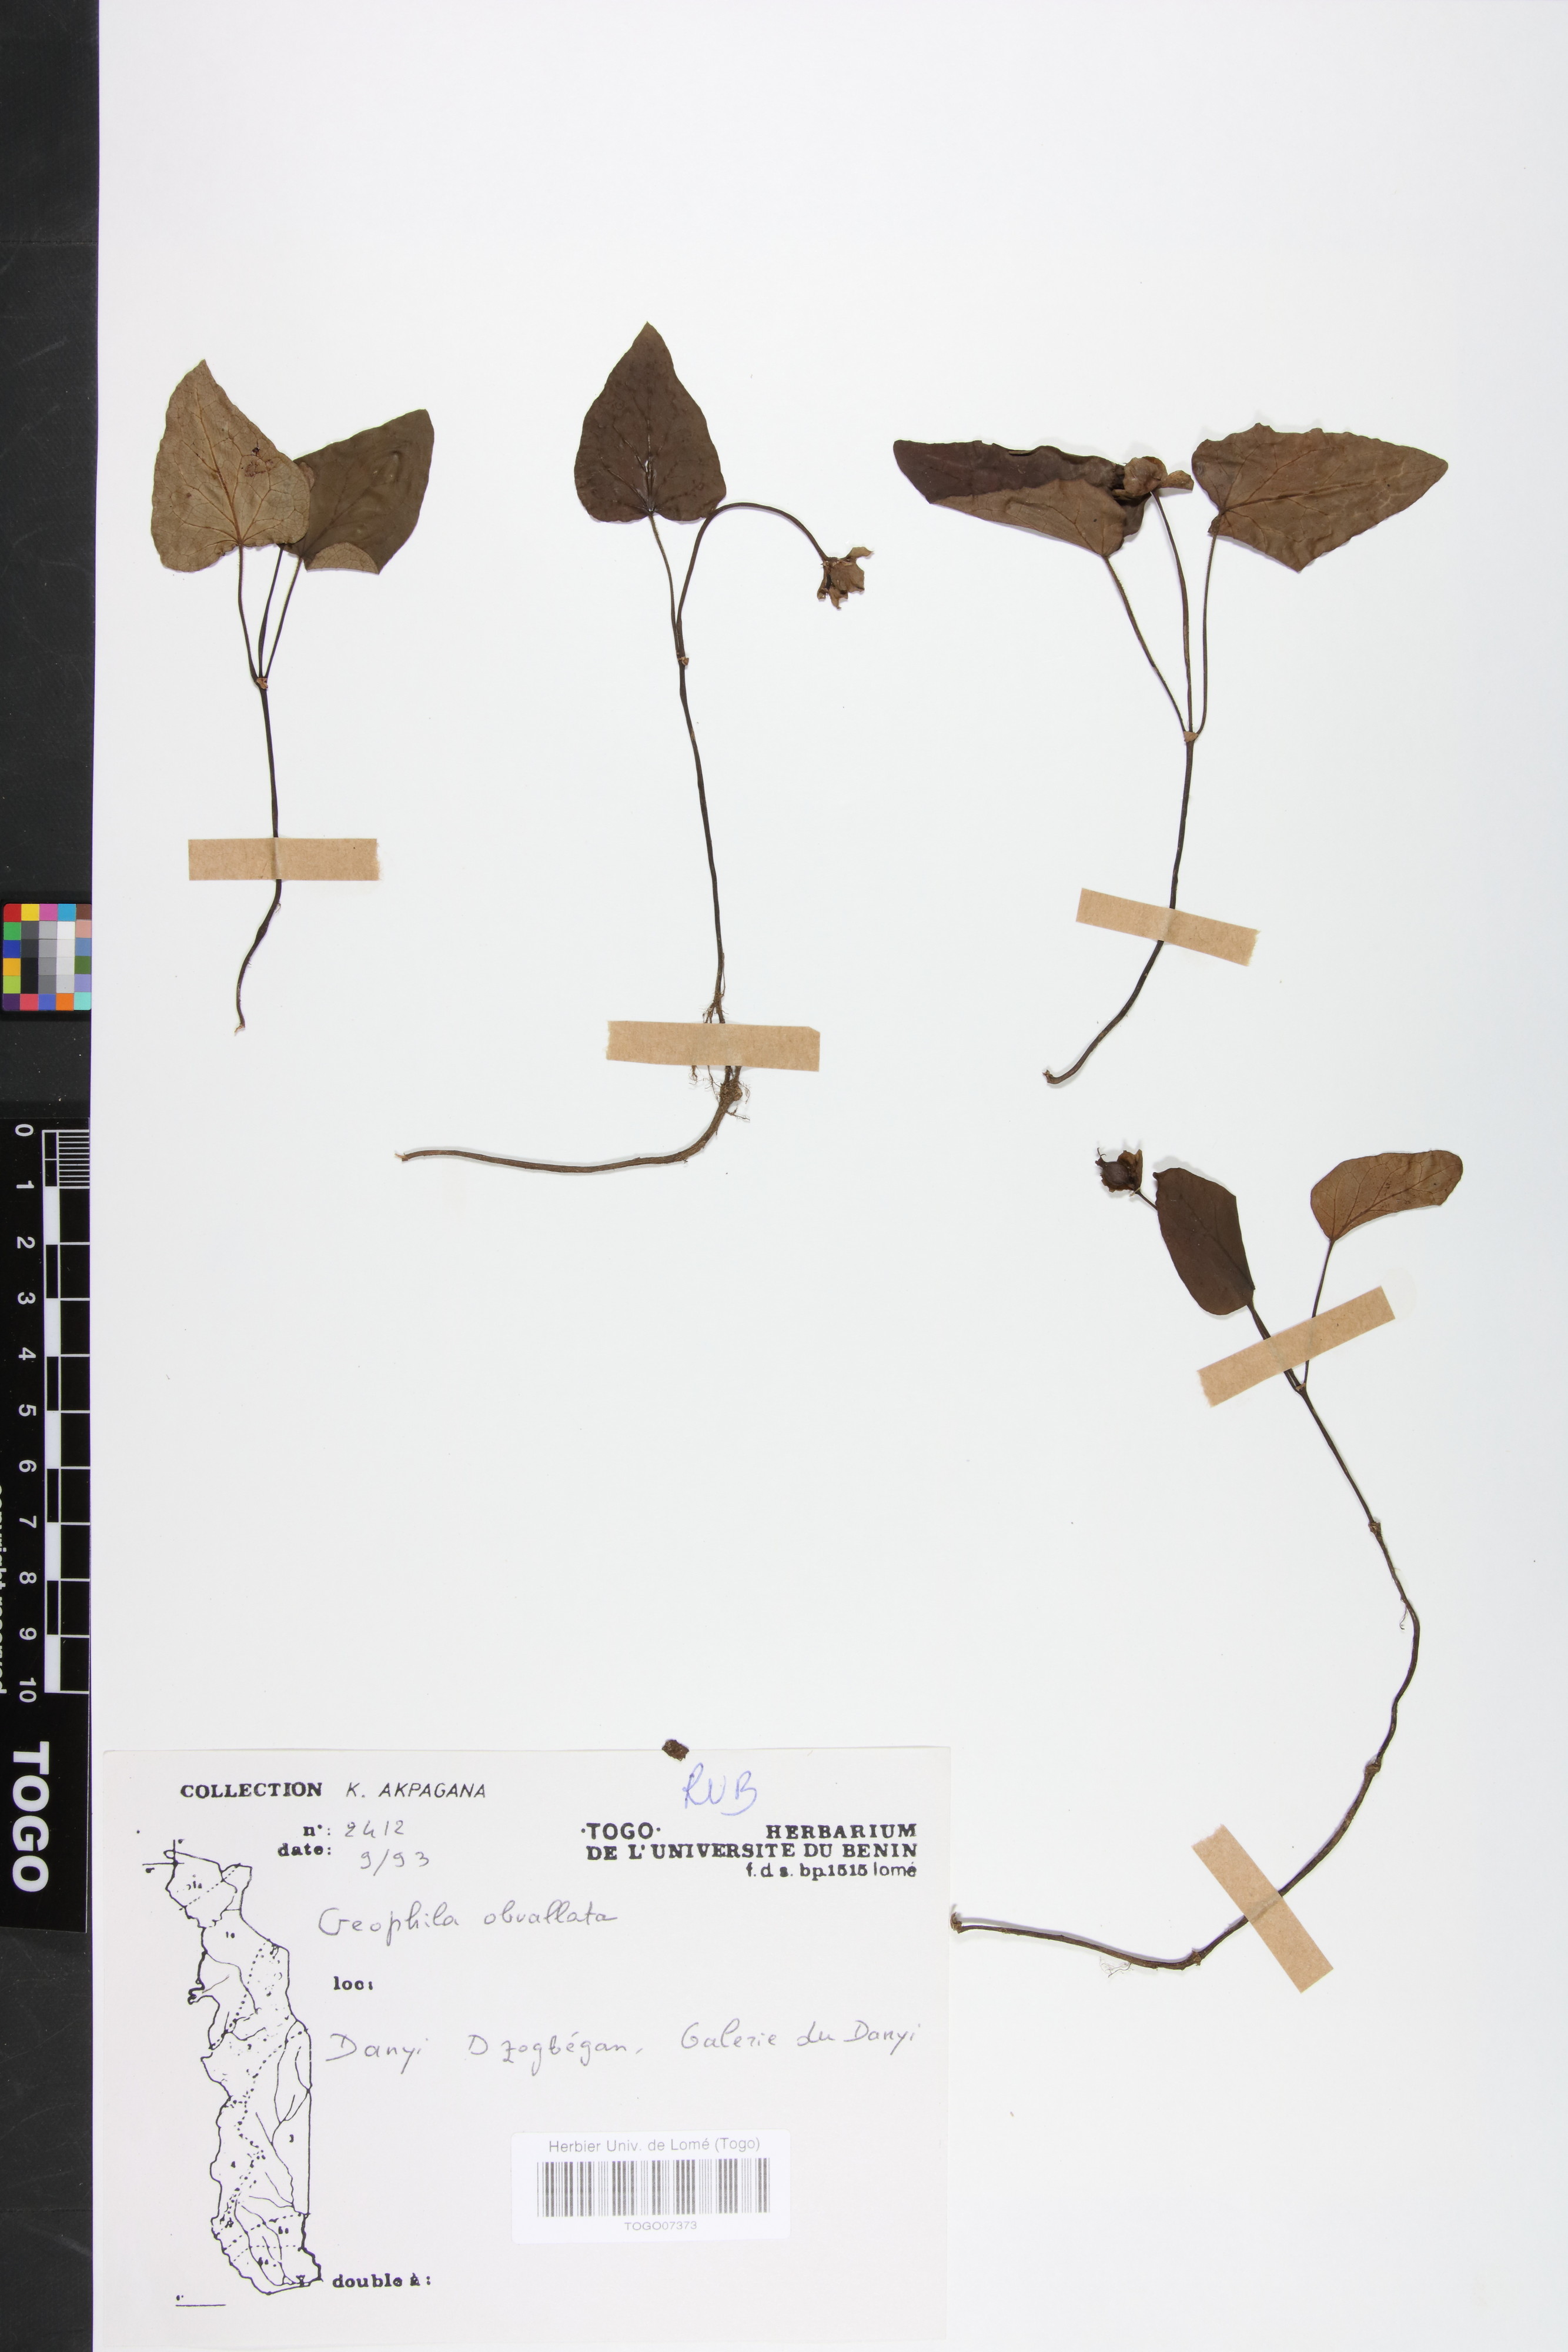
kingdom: Plantae
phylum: Tracheophyta
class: Magnoliopsida
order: Gentianales
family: Rubiaceae
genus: Geophila
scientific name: Geophila obvallata
